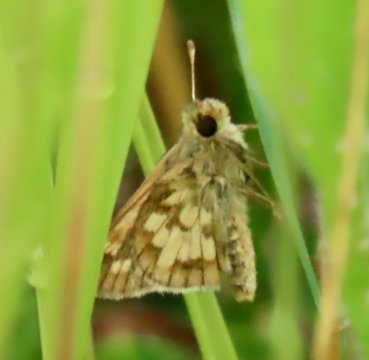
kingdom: Animalia
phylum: Arthropoda
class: Insecta
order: Lepidoptera
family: Hesperiidae
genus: Polites
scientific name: Polites coras
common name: Peck's Skipper
